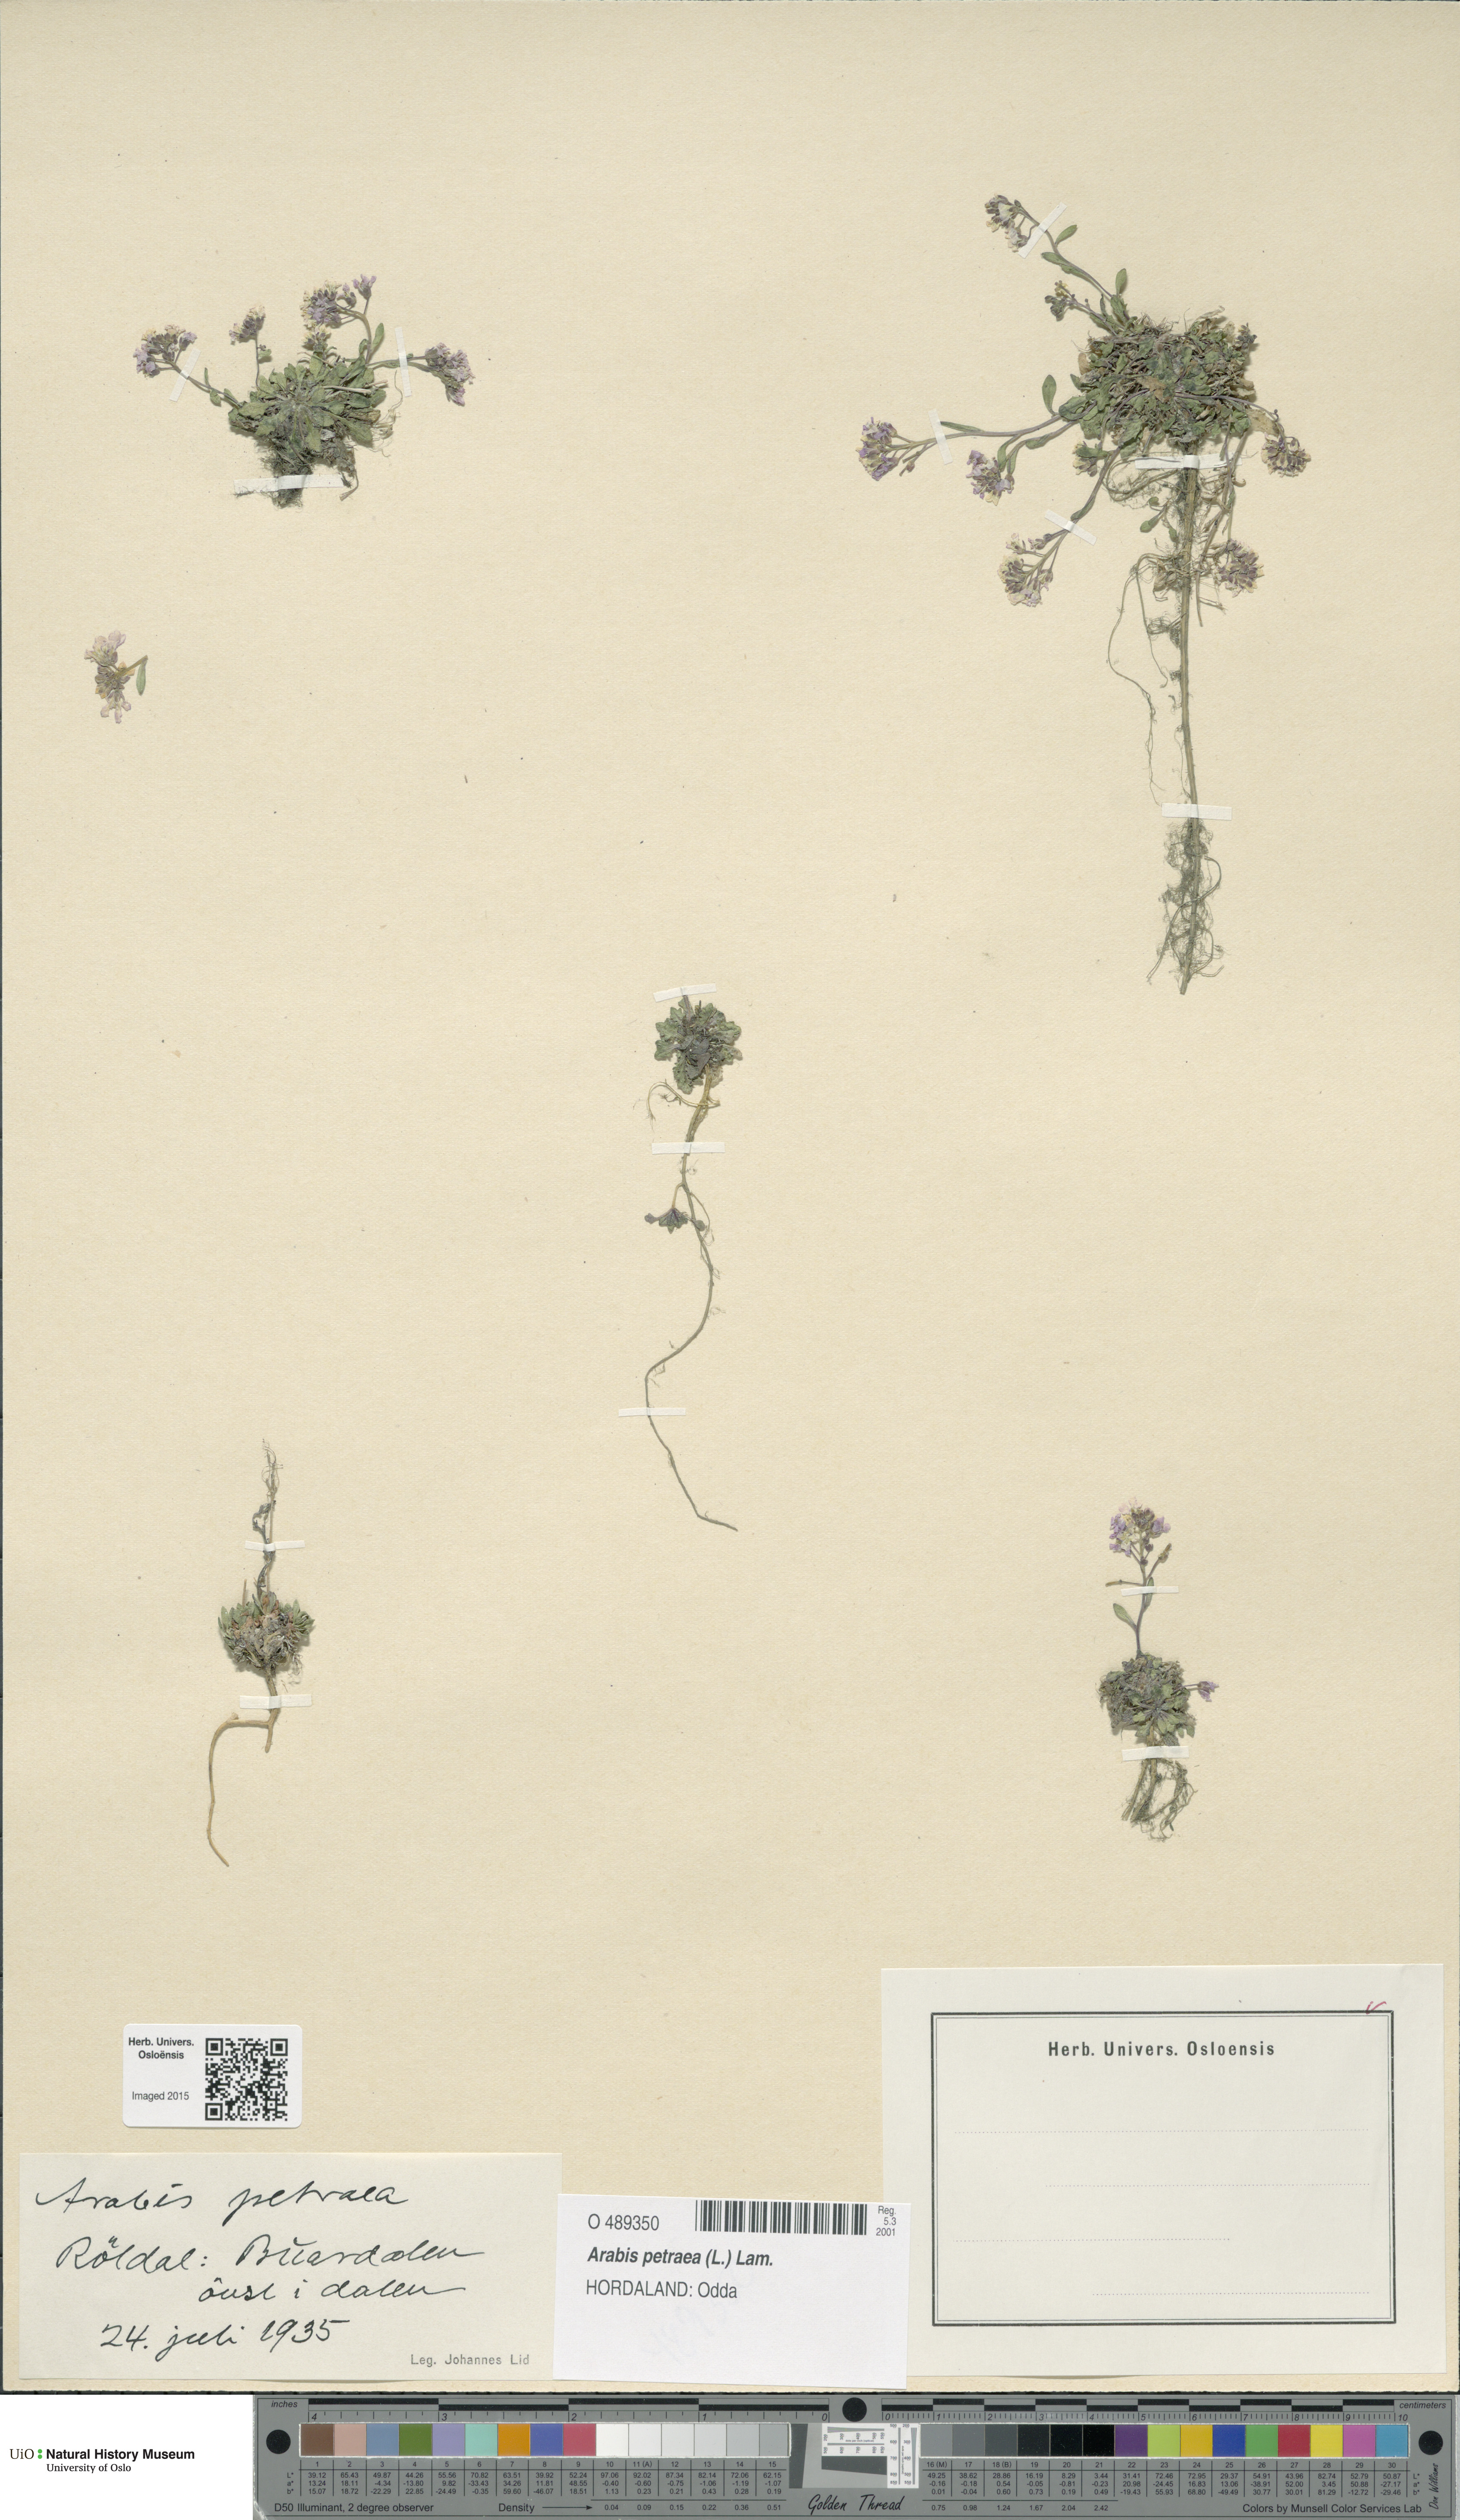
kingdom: Plantae
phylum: Tracheophyta
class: Magnoliopsida
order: Brassicales
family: Brassicaceae
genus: Arabidopsis
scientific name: Arabidopsis petraea
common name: Northern rock-cress
